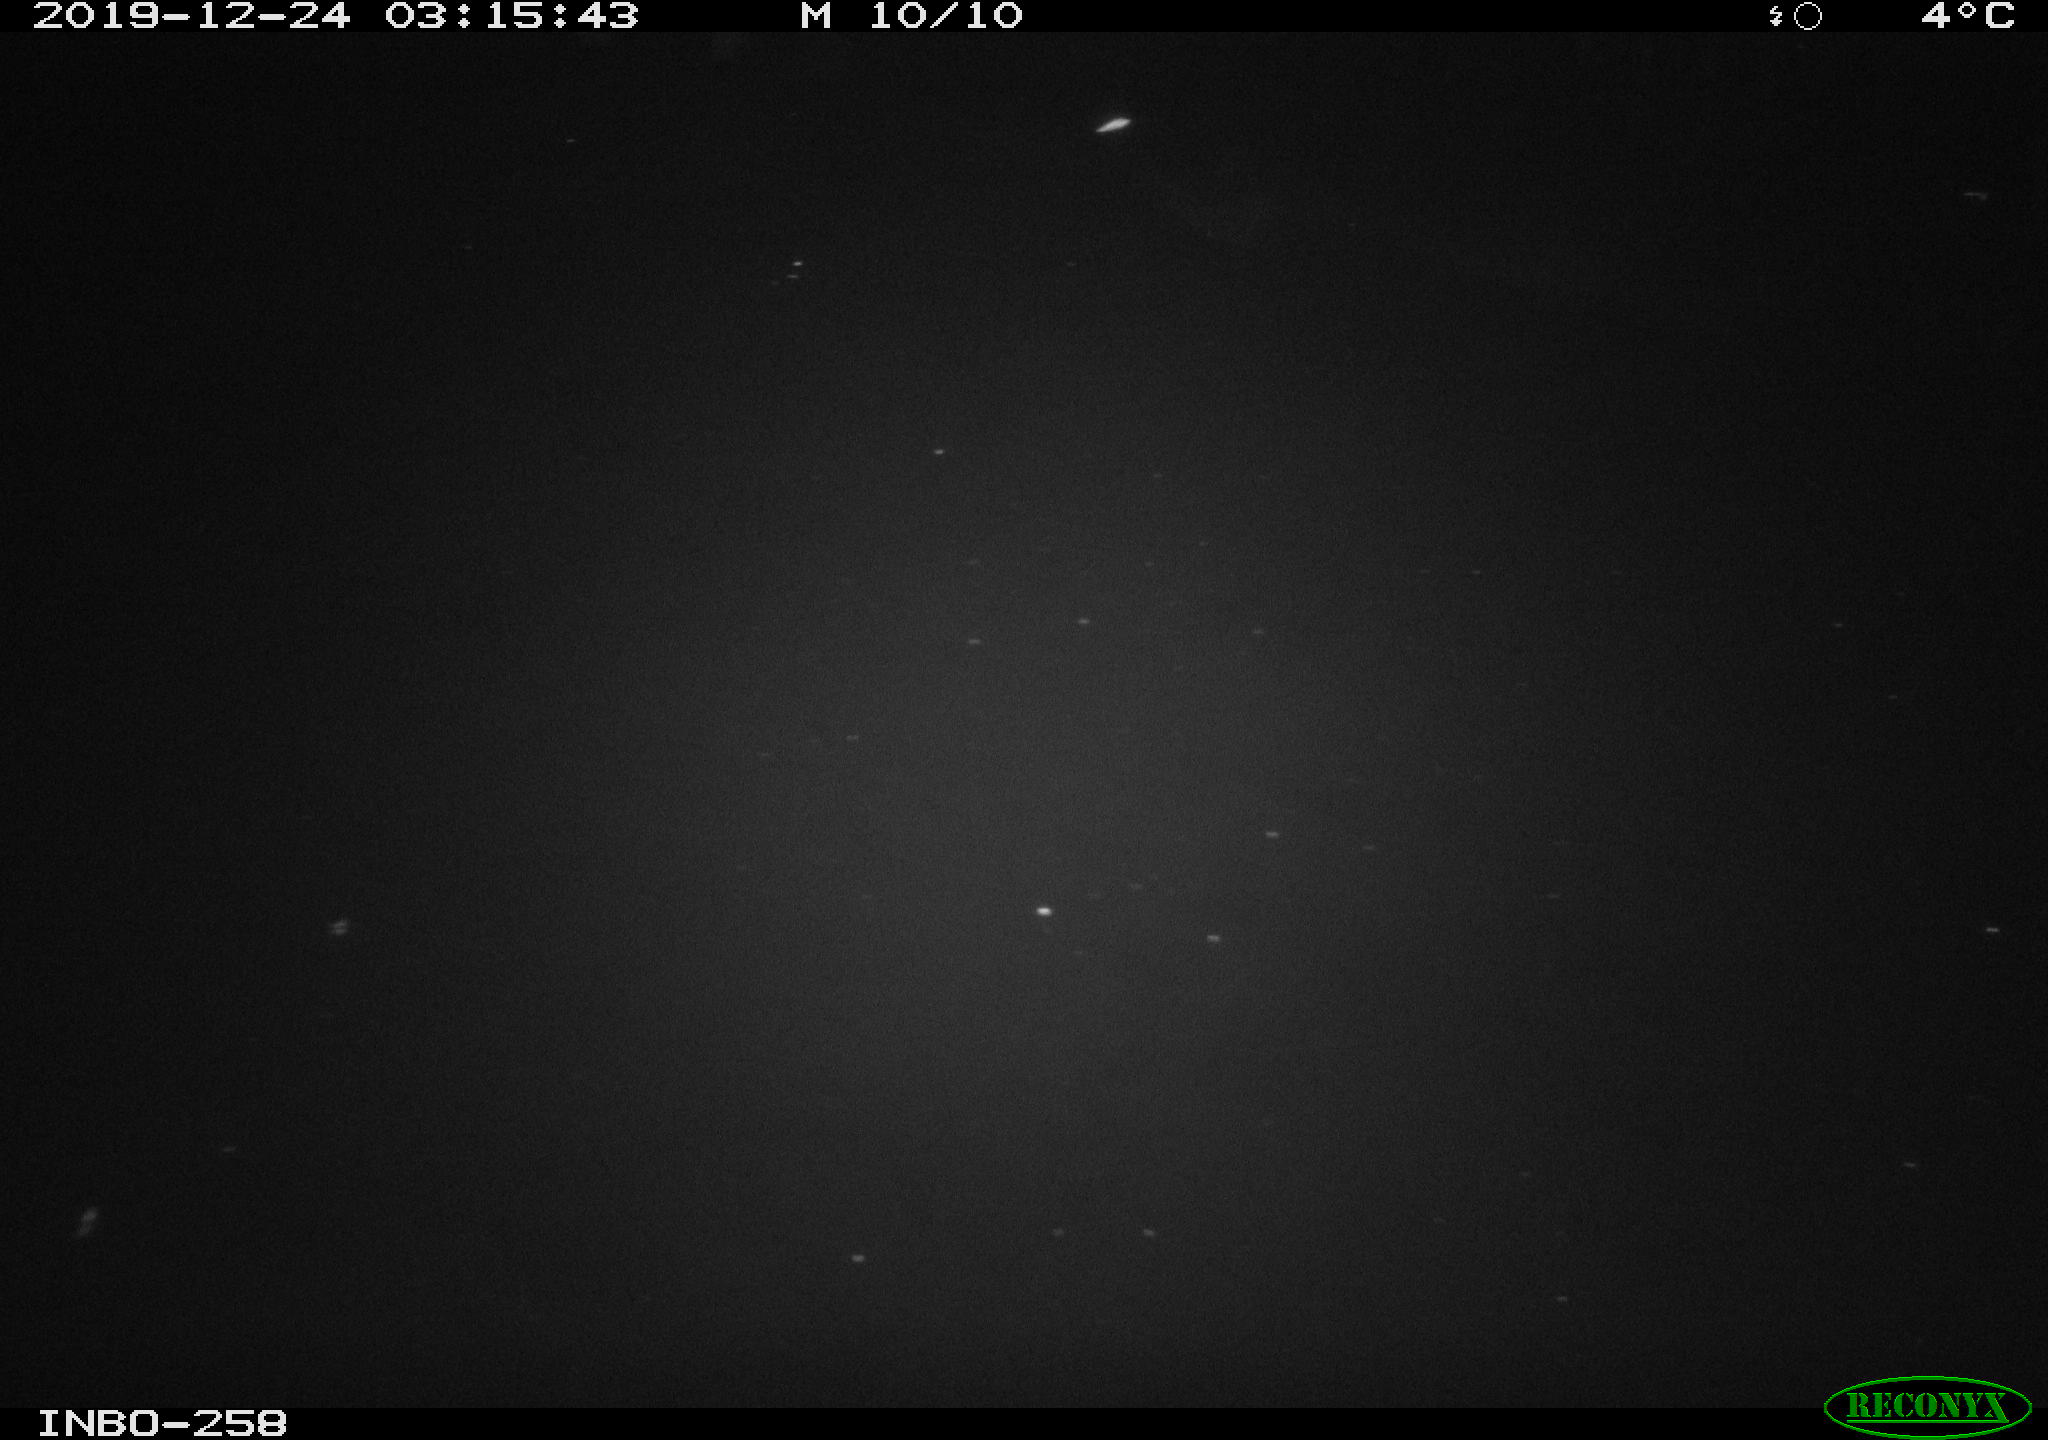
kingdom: Animalia
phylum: Chordata
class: Mammalia
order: Rodentia
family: Muridae
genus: Rattus
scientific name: Rattus norvegicus
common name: Brown rat
